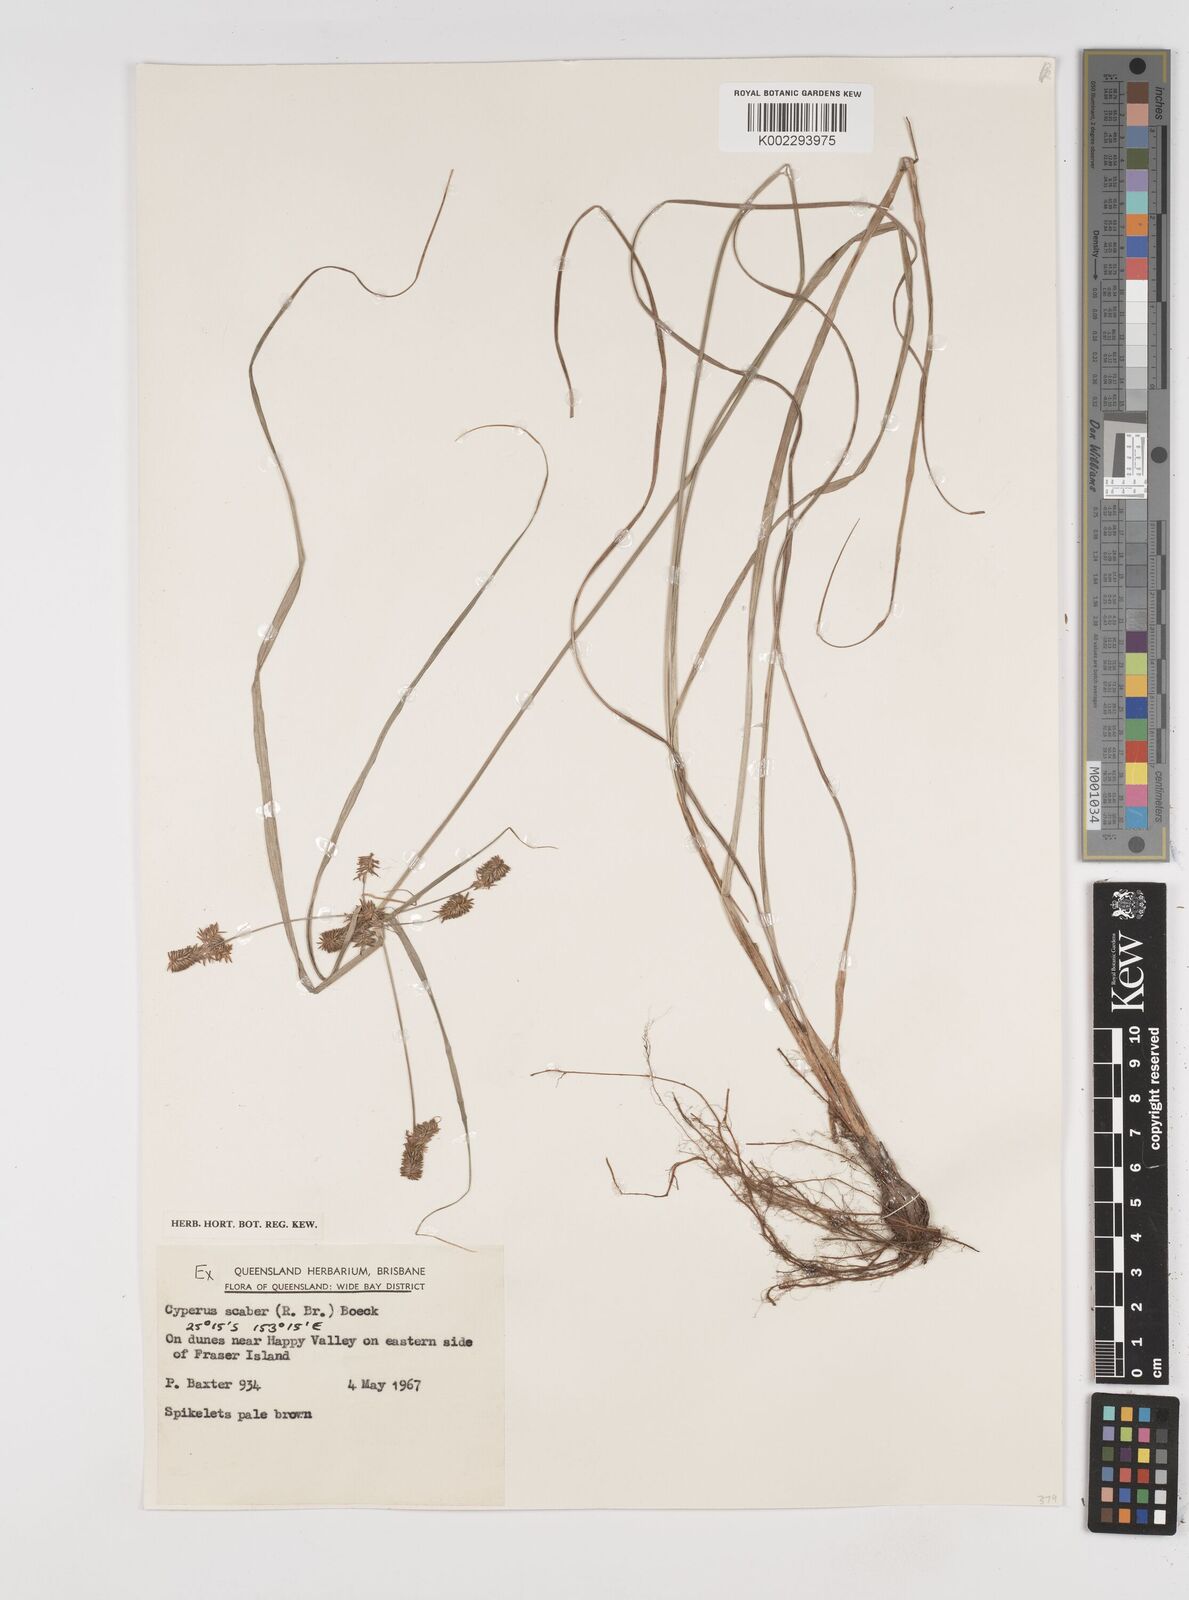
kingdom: Plantae
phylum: Tracheophyta
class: Liliopsida
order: Poales
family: Cyperaceae
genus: Cyperus
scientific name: Cyperus scaber
